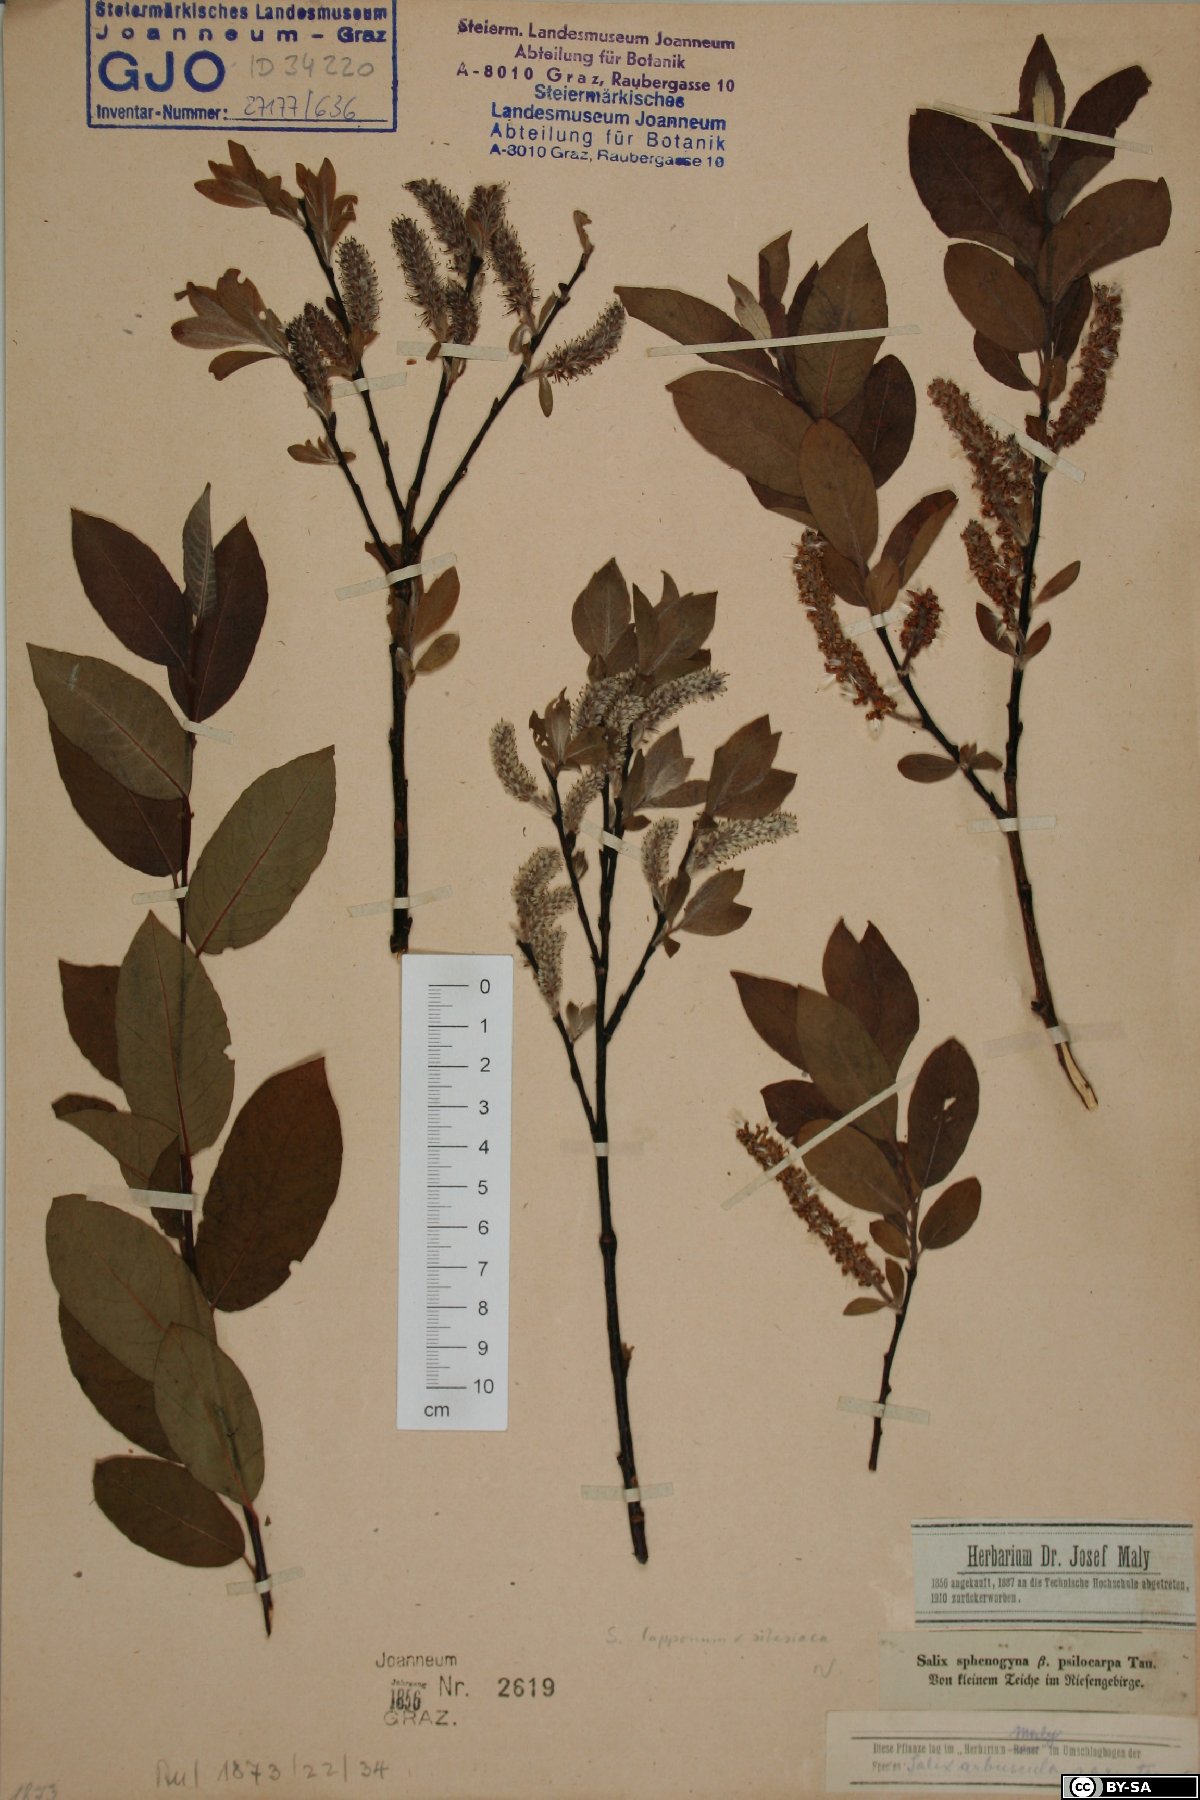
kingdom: Plantae
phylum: Tracheophyta
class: Magnoliopsida
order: Malpighiales
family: Salicaceae
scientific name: Salicaceae
